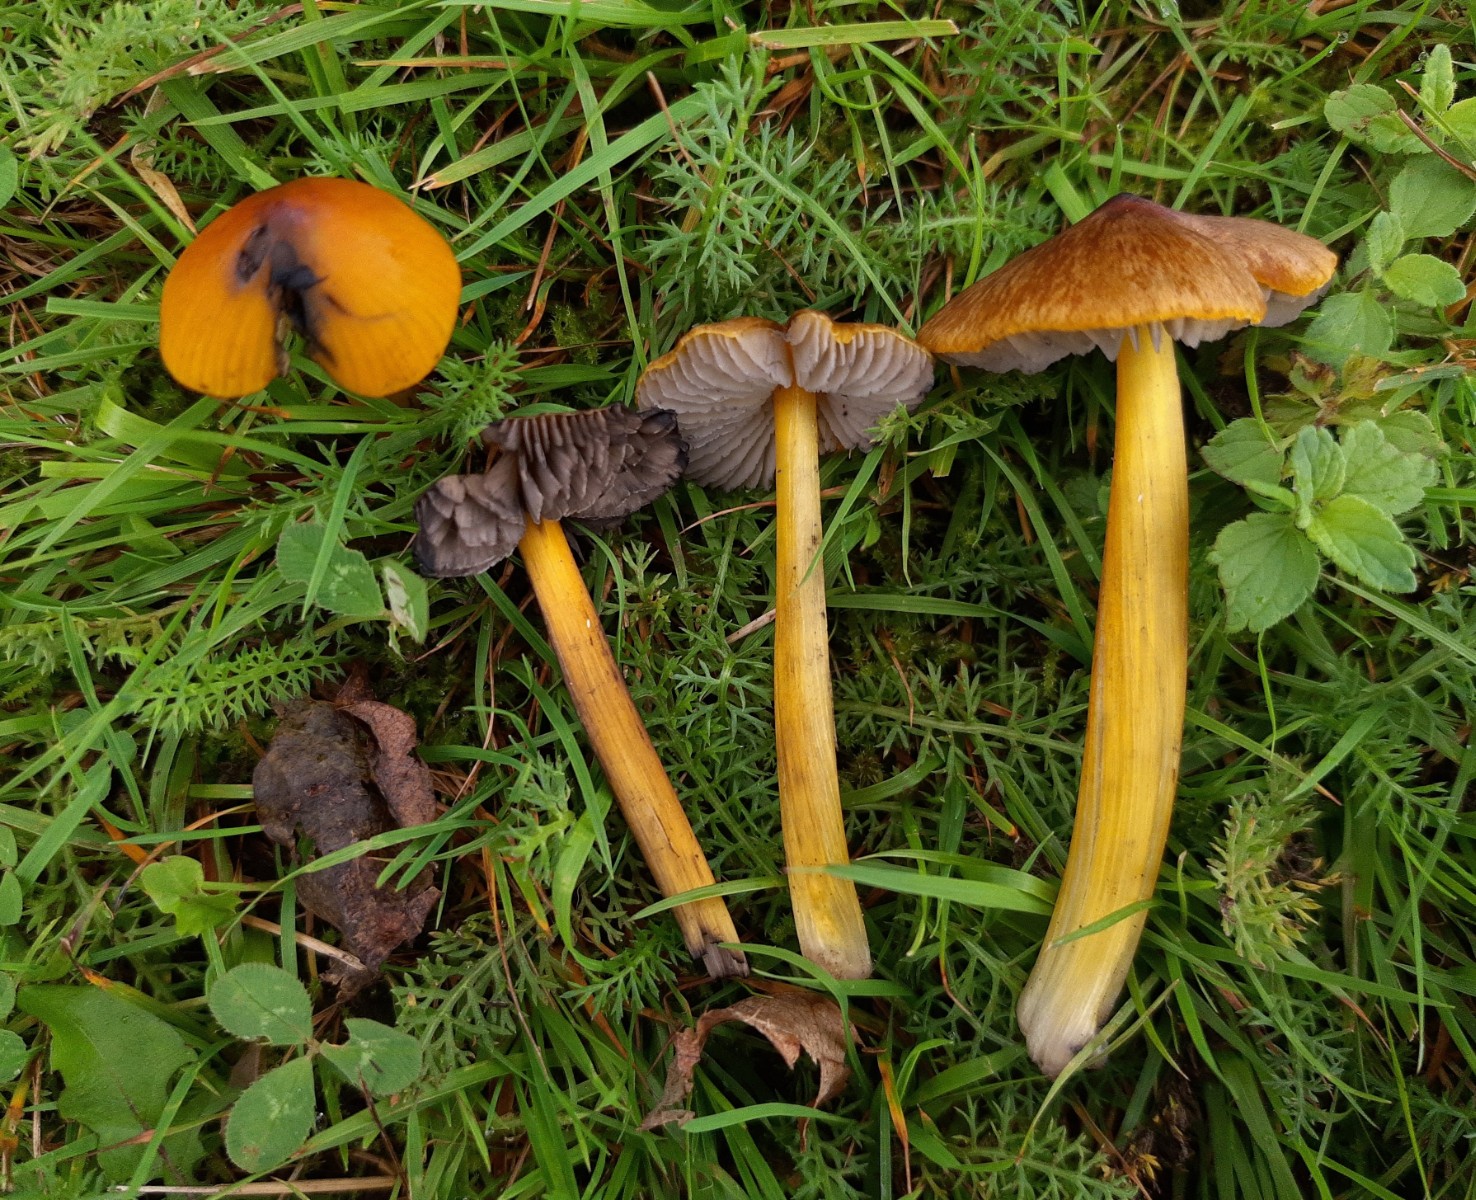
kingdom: Fungi
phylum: Basidiomycota
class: Agaricomycetes
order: Agaricales
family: Hygrophoraceae
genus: Hygrocybe
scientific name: Hygrocybe conica
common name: kegle-vokshat
